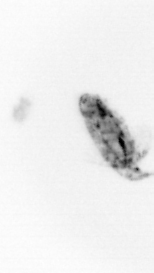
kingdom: Animalia
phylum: Arthropoda
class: Copepoda
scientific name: Copepoda
